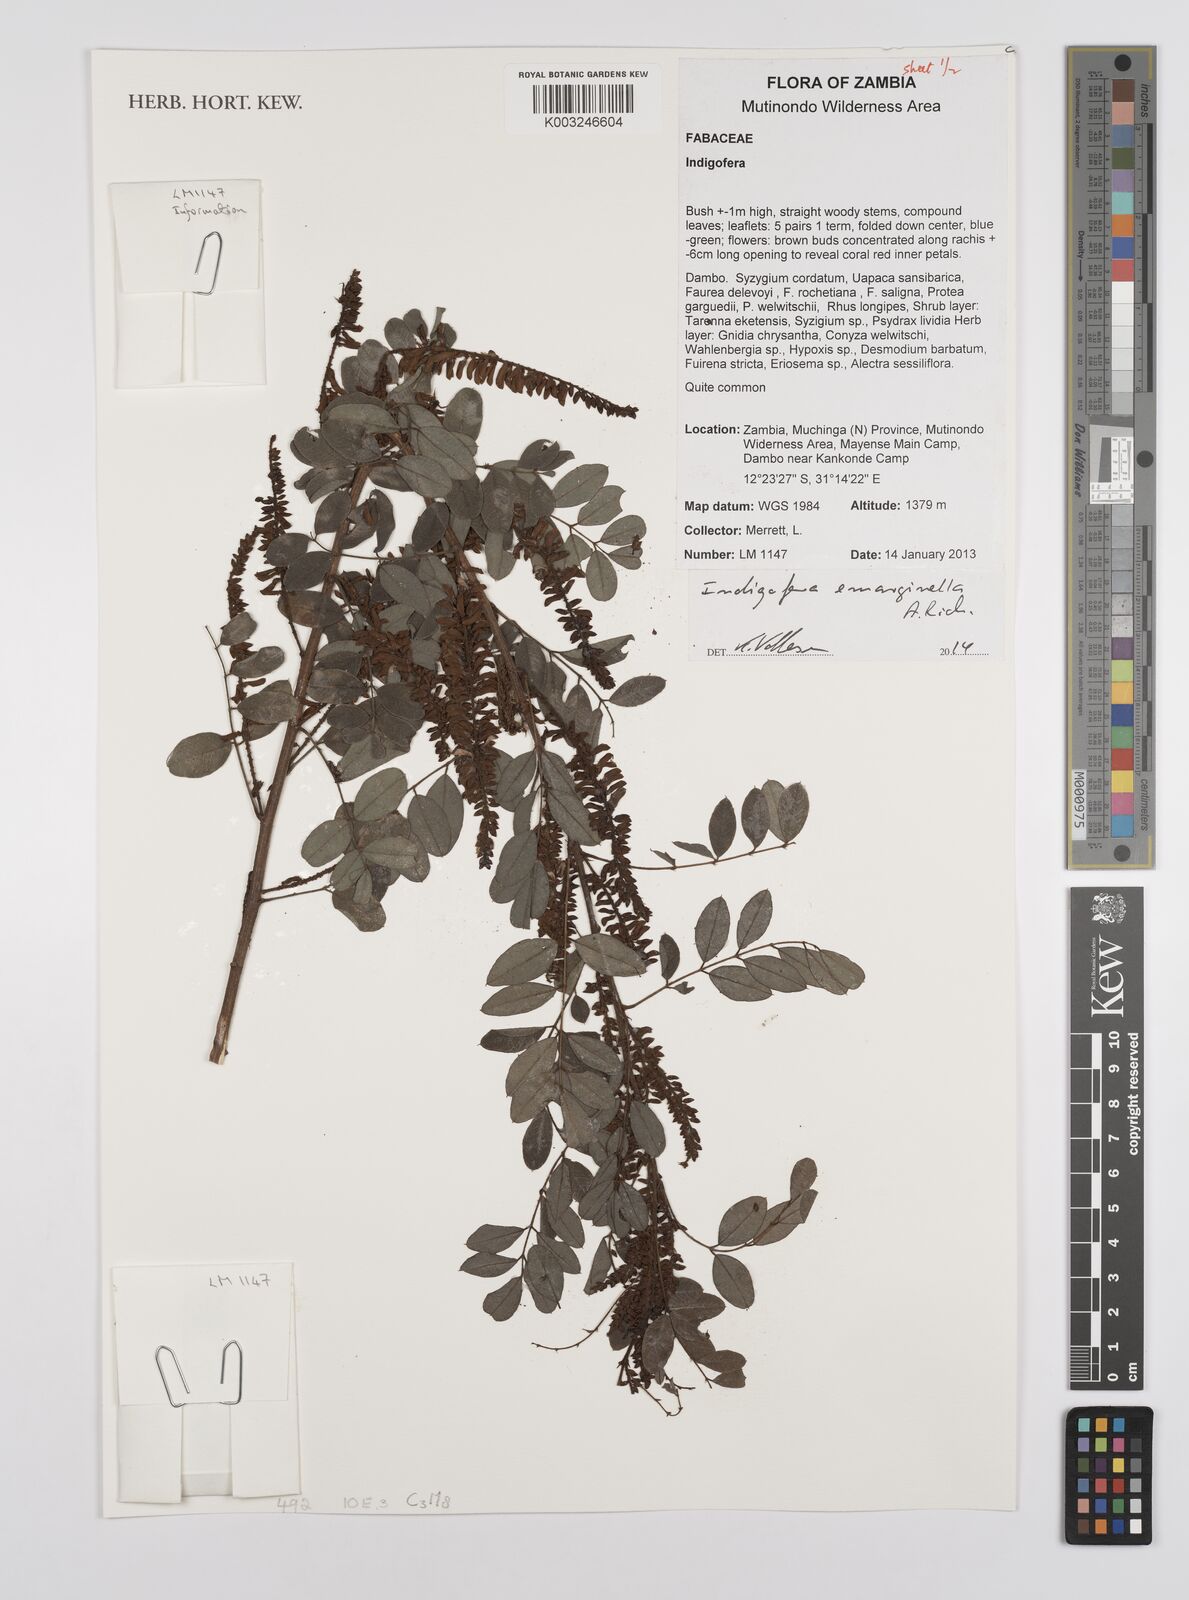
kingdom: Plantae
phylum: Tracheophyta
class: Magnoliopsida
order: Fabales
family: Fabaceae
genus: Indigofera
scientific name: Indigofera emarginella
